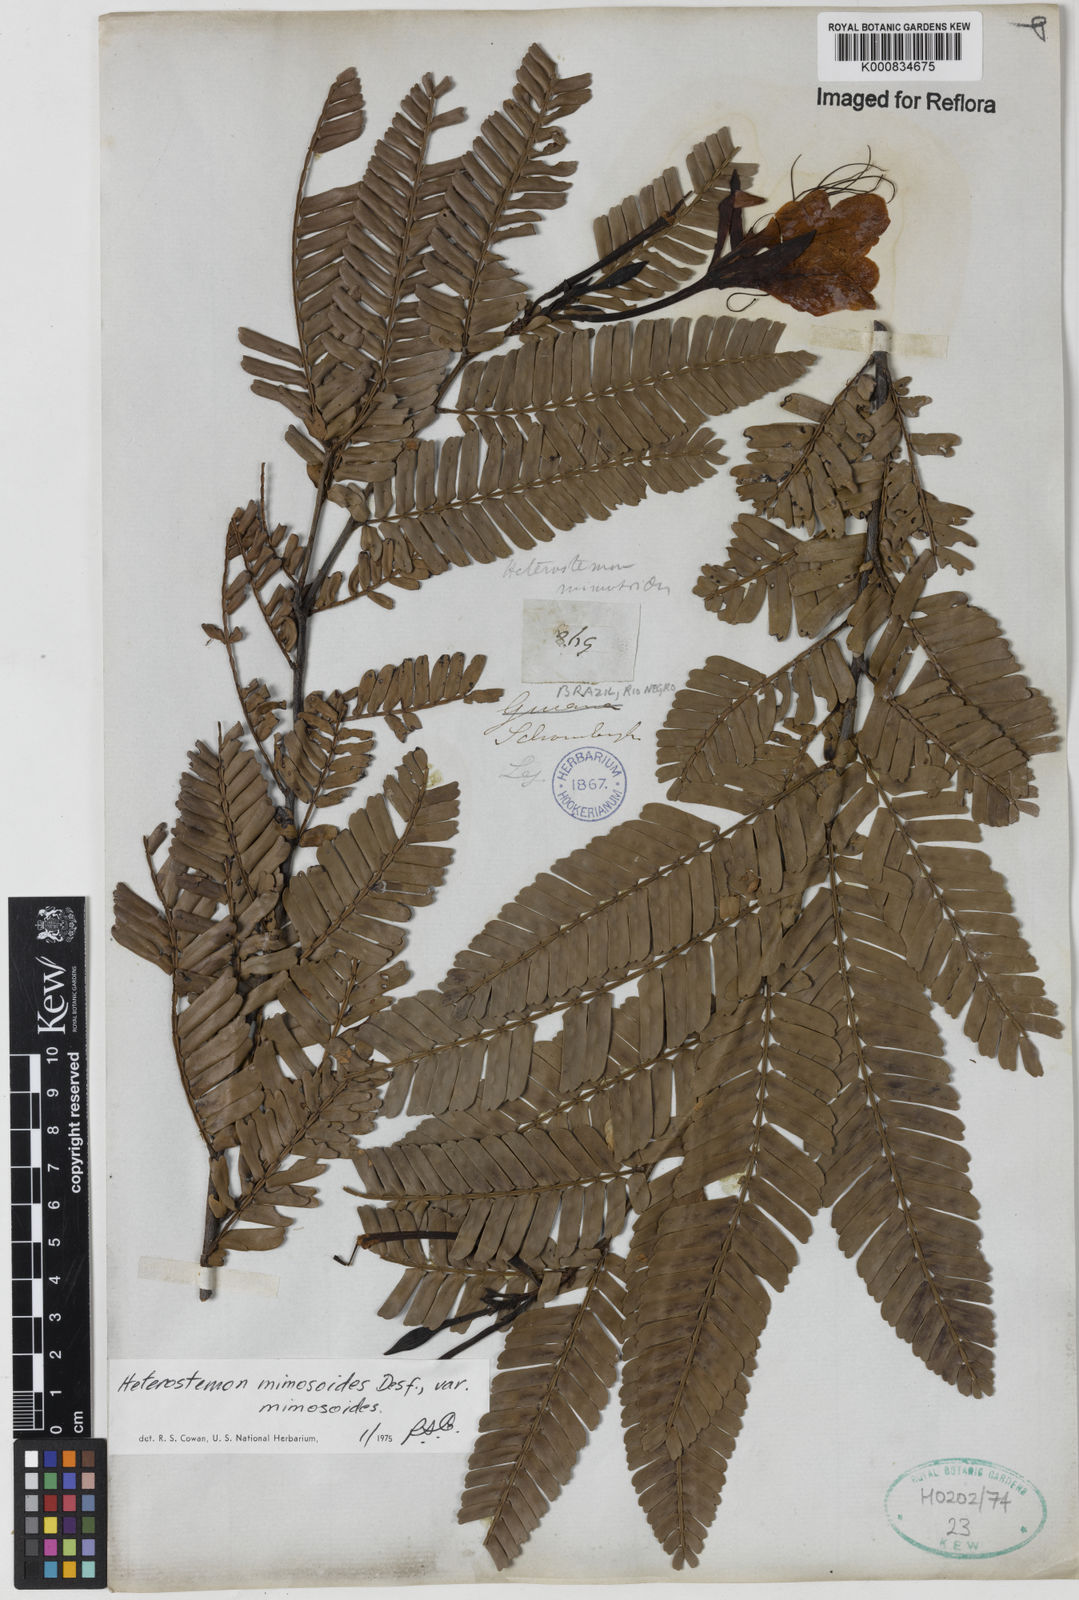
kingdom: Plantae
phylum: Tracheophyta
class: Magnoliopsida
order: Fabales
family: Fabaceae
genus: Heterostemon
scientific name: Heterostemon mimosoides
